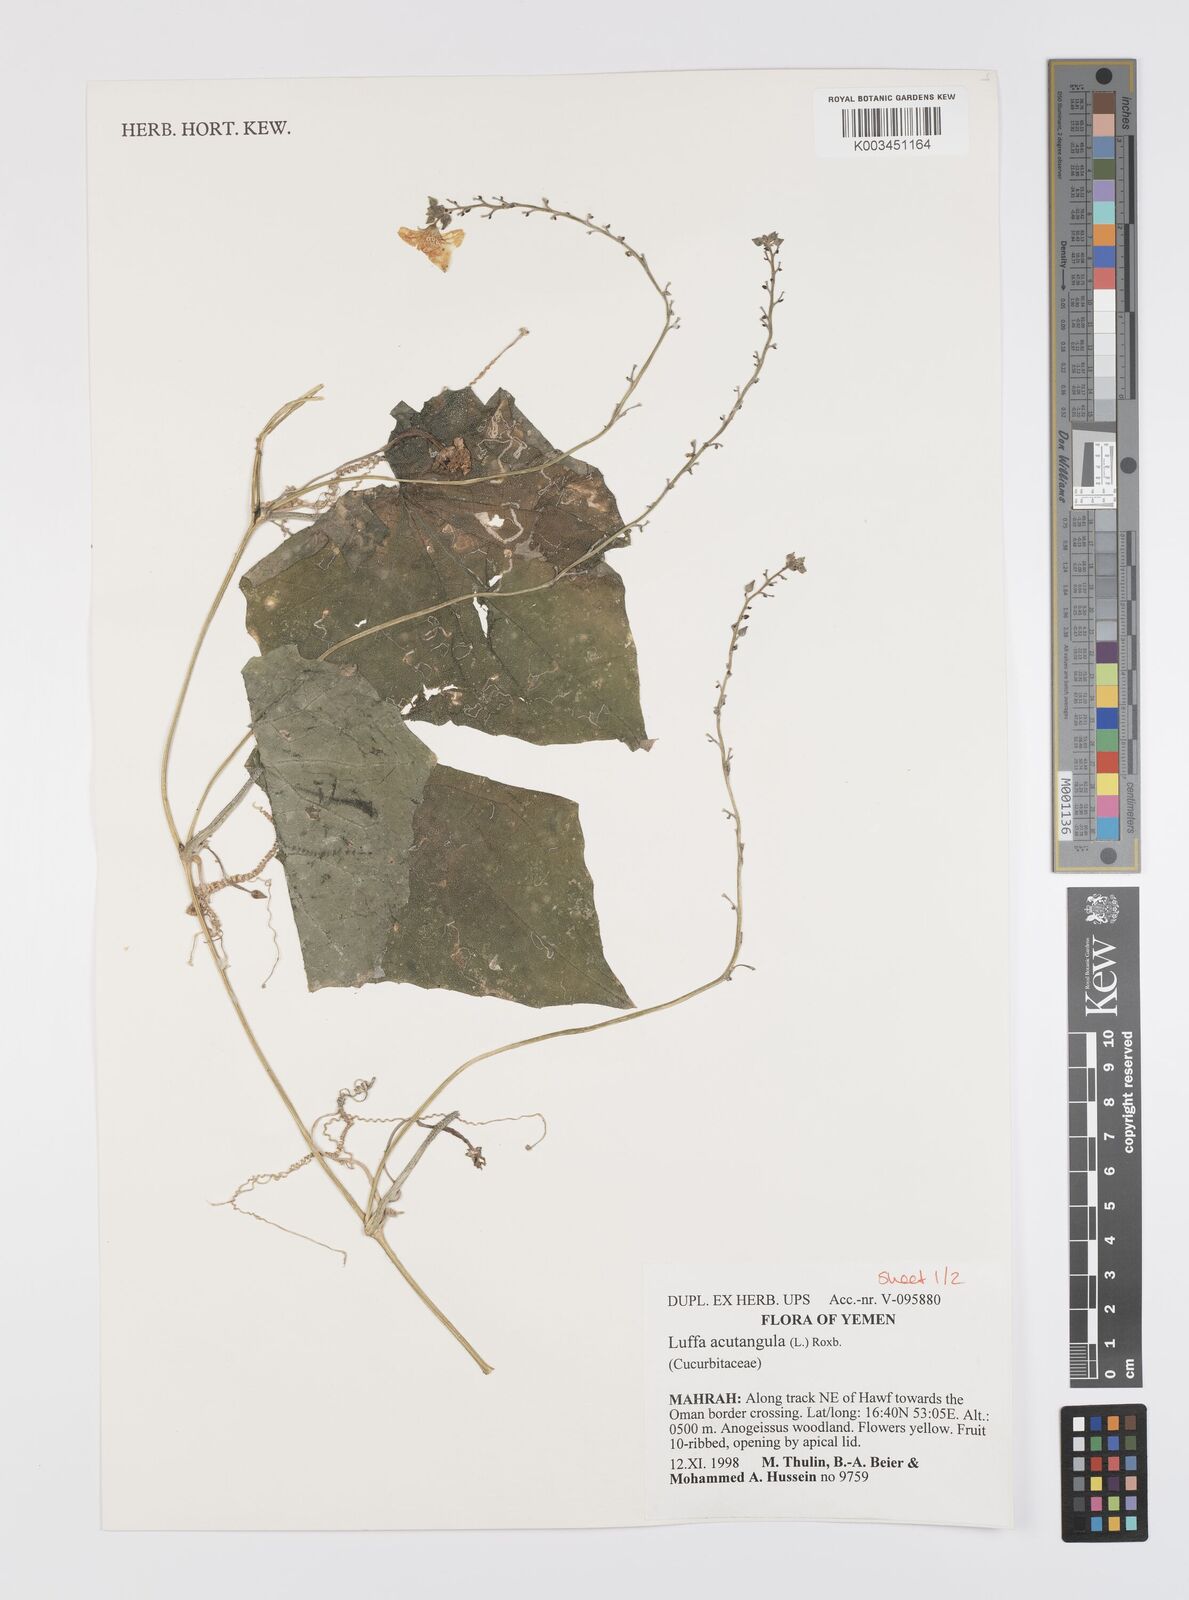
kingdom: Plantae
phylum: Tracheophyta
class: Magnoliopsida
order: Cucurbitales
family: Cucurbitaceae
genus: Luffa
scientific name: Luffa acutangula
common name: Sinkwa towelsponge
